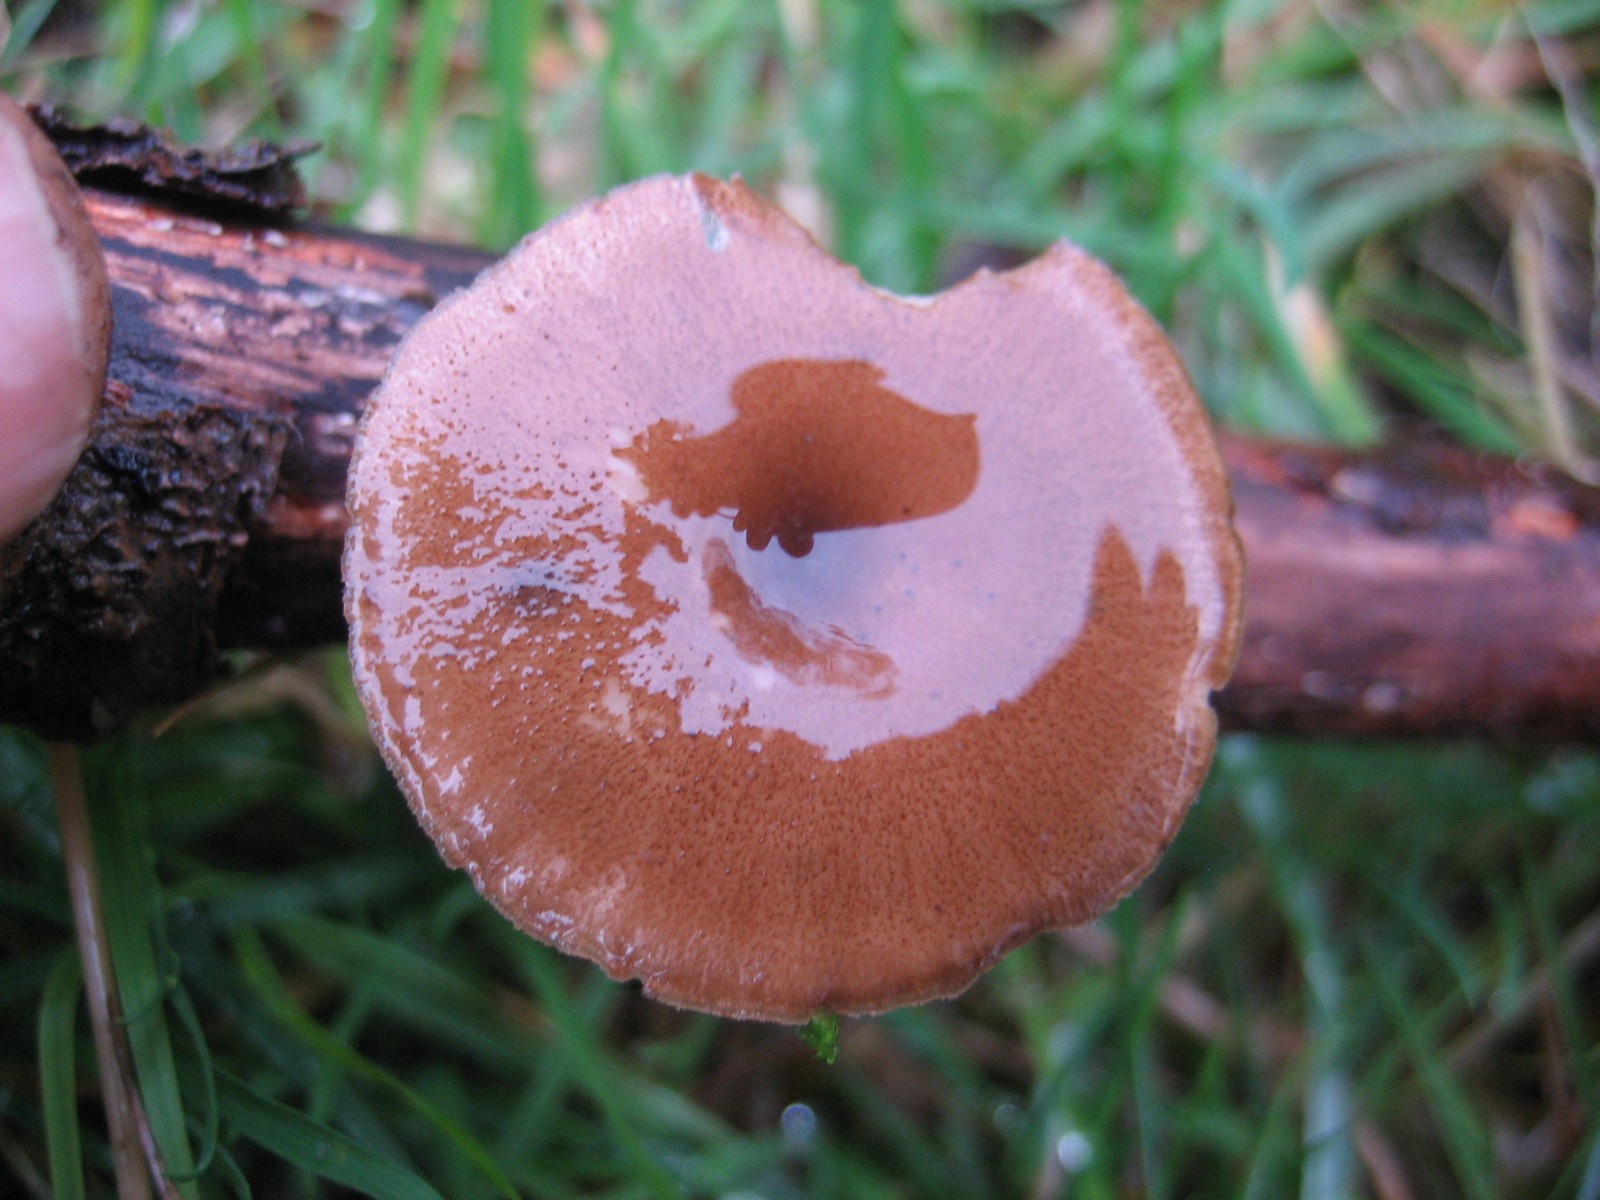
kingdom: Fungi
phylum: Basidiomycota
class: Agaricomycetes
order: Polyporales
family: Polyporaceae
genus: Lentinus
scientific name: Lentinus brumalis
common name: vinter-stilkporesvamp
